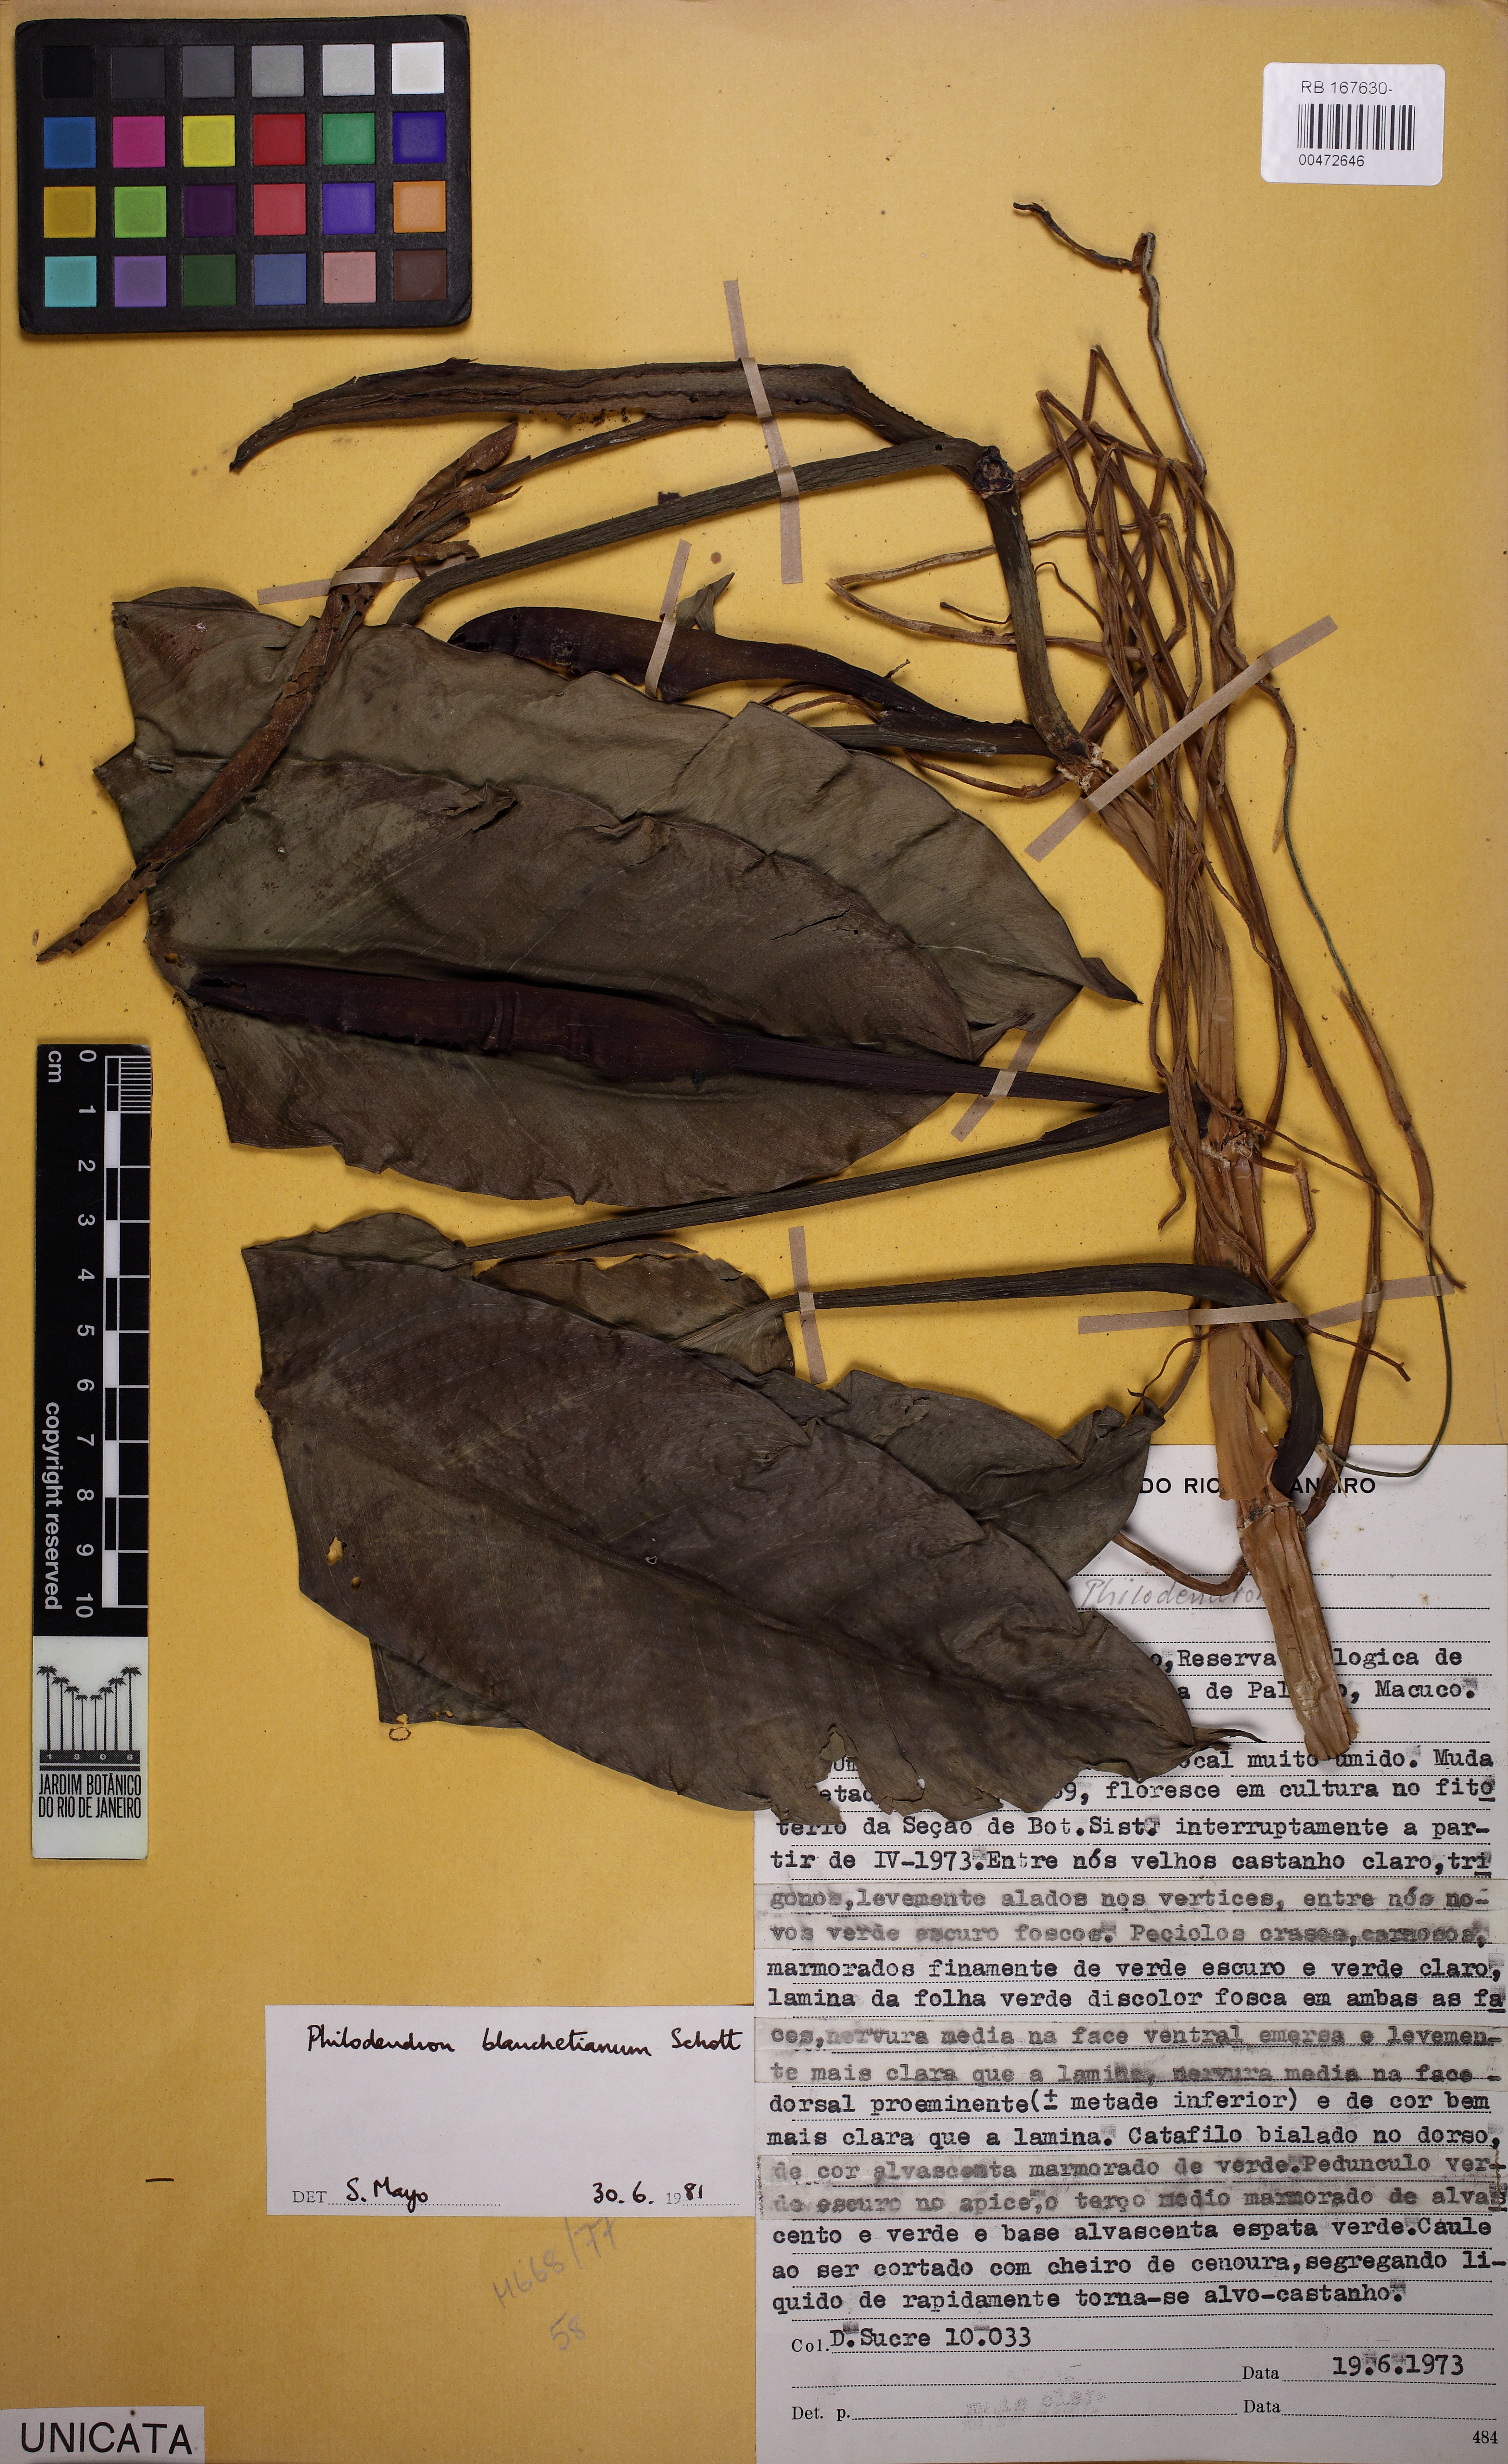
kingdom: Plantae
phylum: Tracheophyta
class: Liliopsida
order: Alismatales
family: Araceae
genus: Philodendron
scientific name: Philodendron blanchetianum
